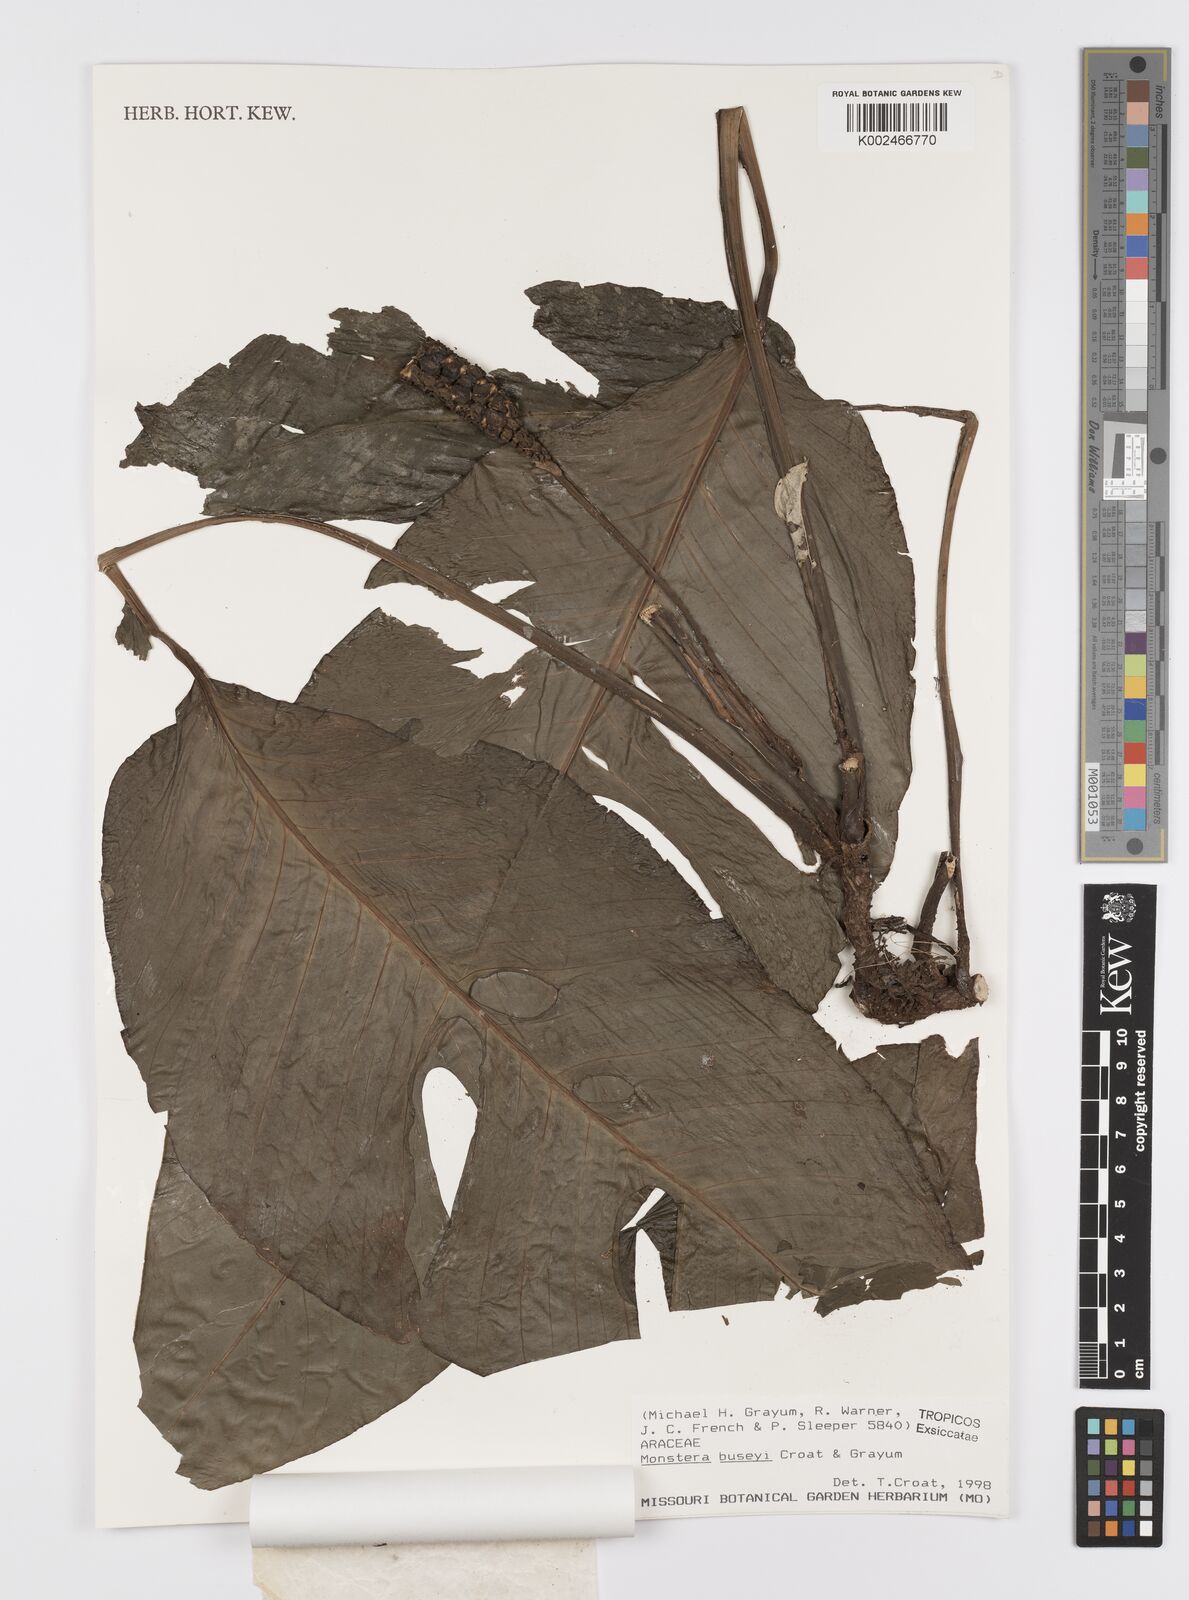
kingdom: Plantae
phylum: Tracheophyta
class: Liliopsida
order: Alismatales
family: Araceae
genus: Monstera
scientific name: Monstera buseyi
